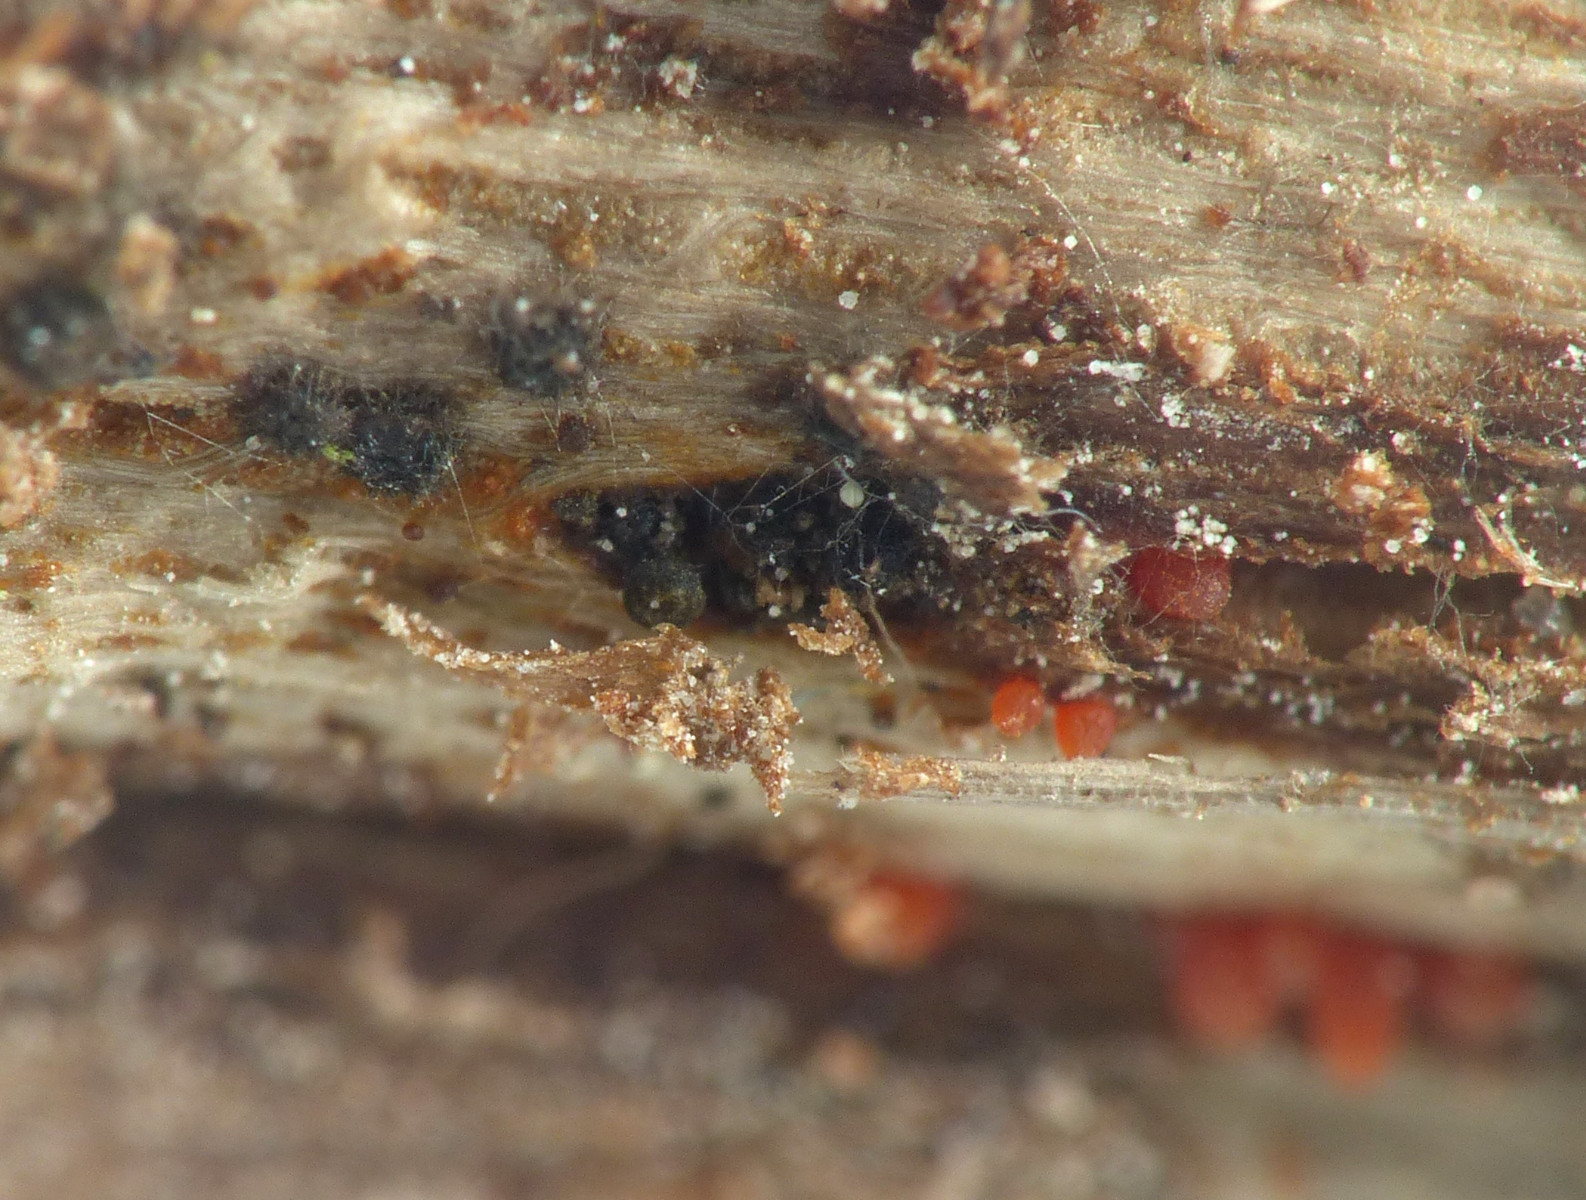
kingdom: Fungi
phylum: Ascomycota
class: Dothideomycetes
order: Pleosporales
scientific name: Pleosporales
